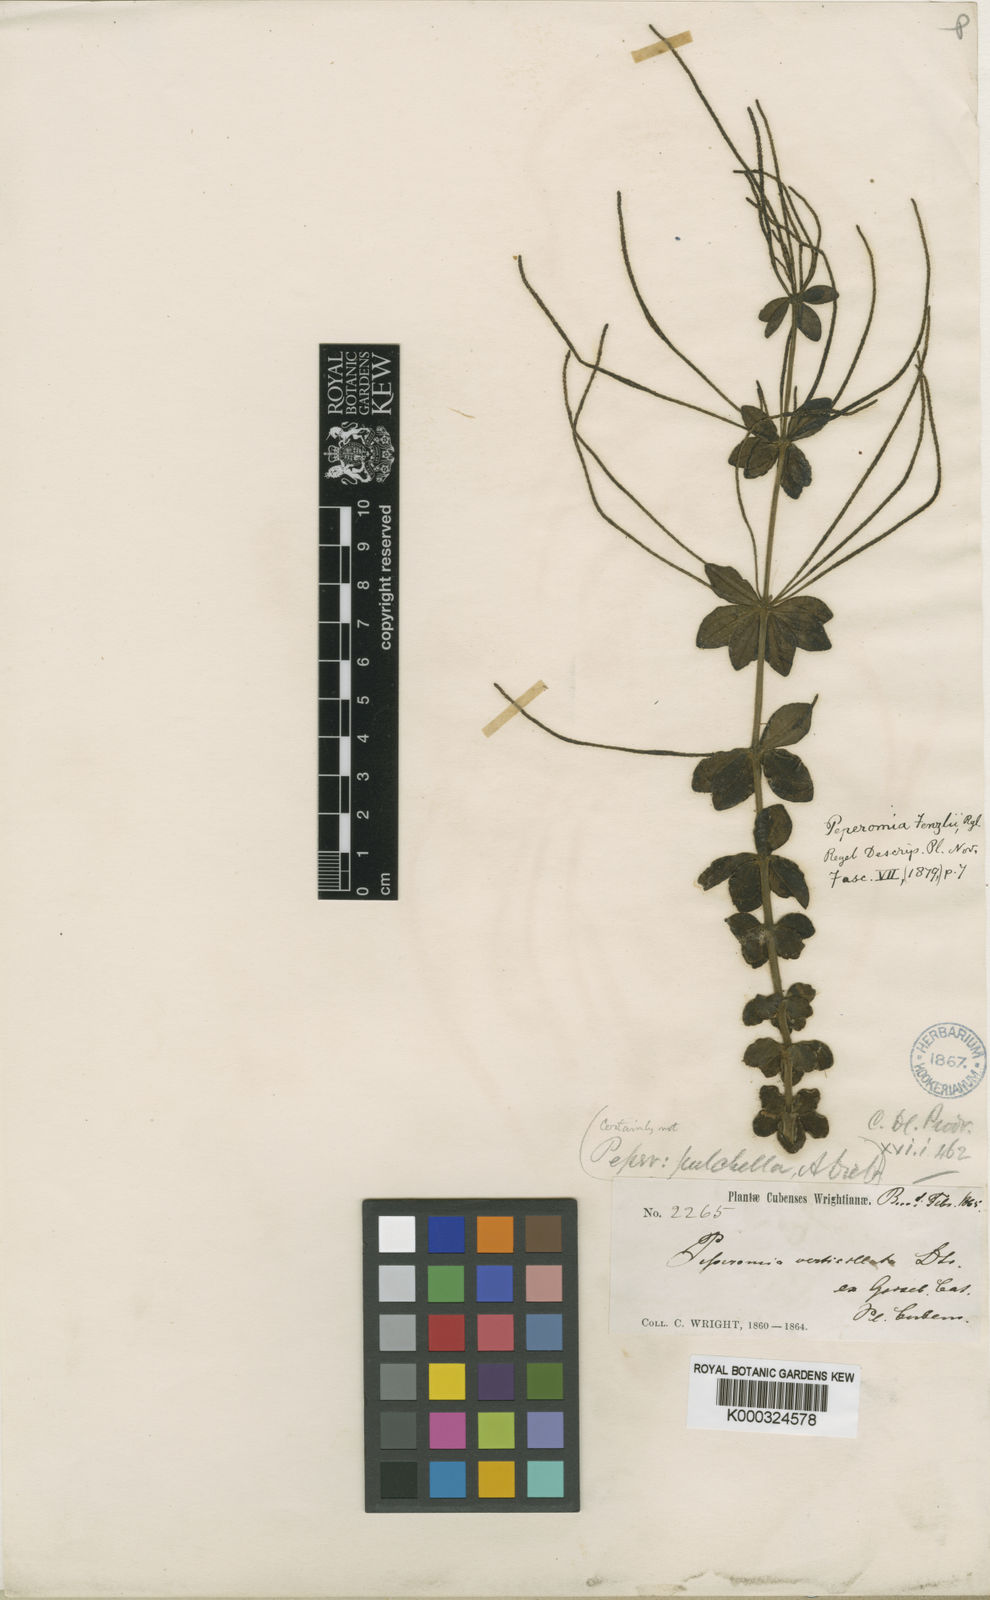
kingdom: Plantae
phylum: Tracheophyta
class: Magnoliopsida
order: Piperales
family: Piperaceae
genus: Peperomia
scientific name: Peperomia verticillata
